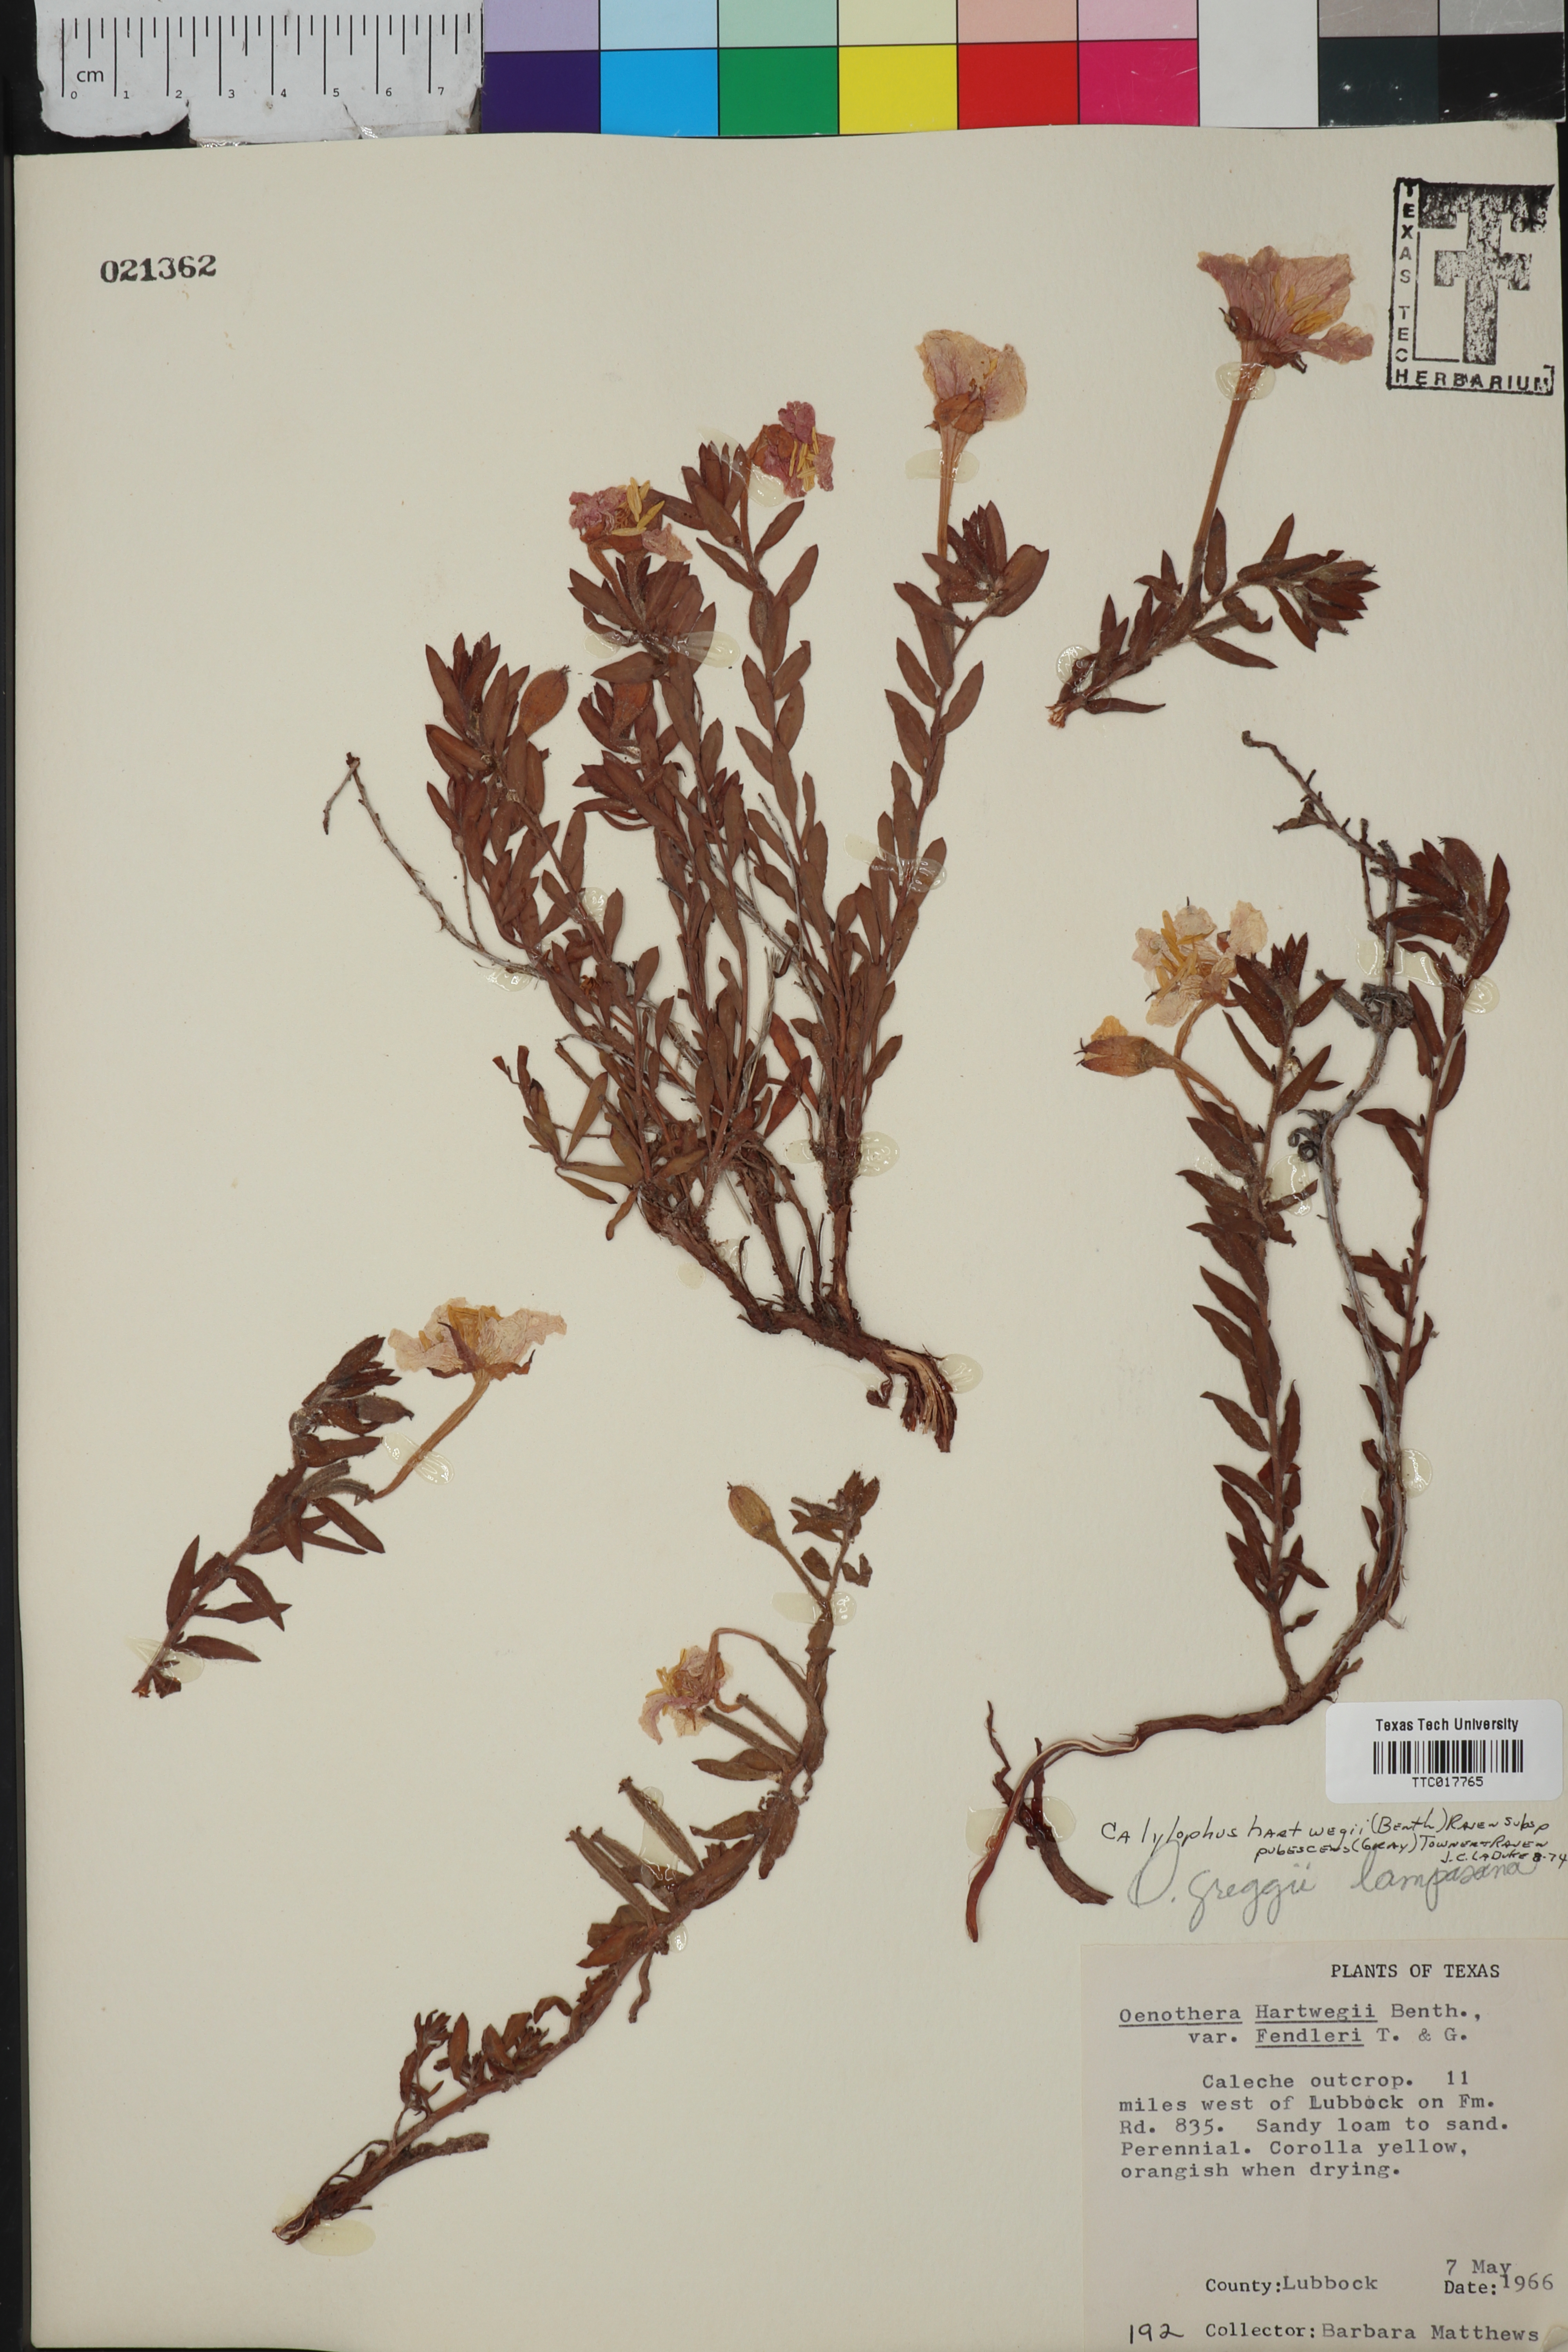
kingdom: Plantae
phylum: Tracheophyta
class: Magnoliopsida
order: Myrtales
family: Onagraceae
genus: Oenothera
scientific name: Oenothera hartwegii
